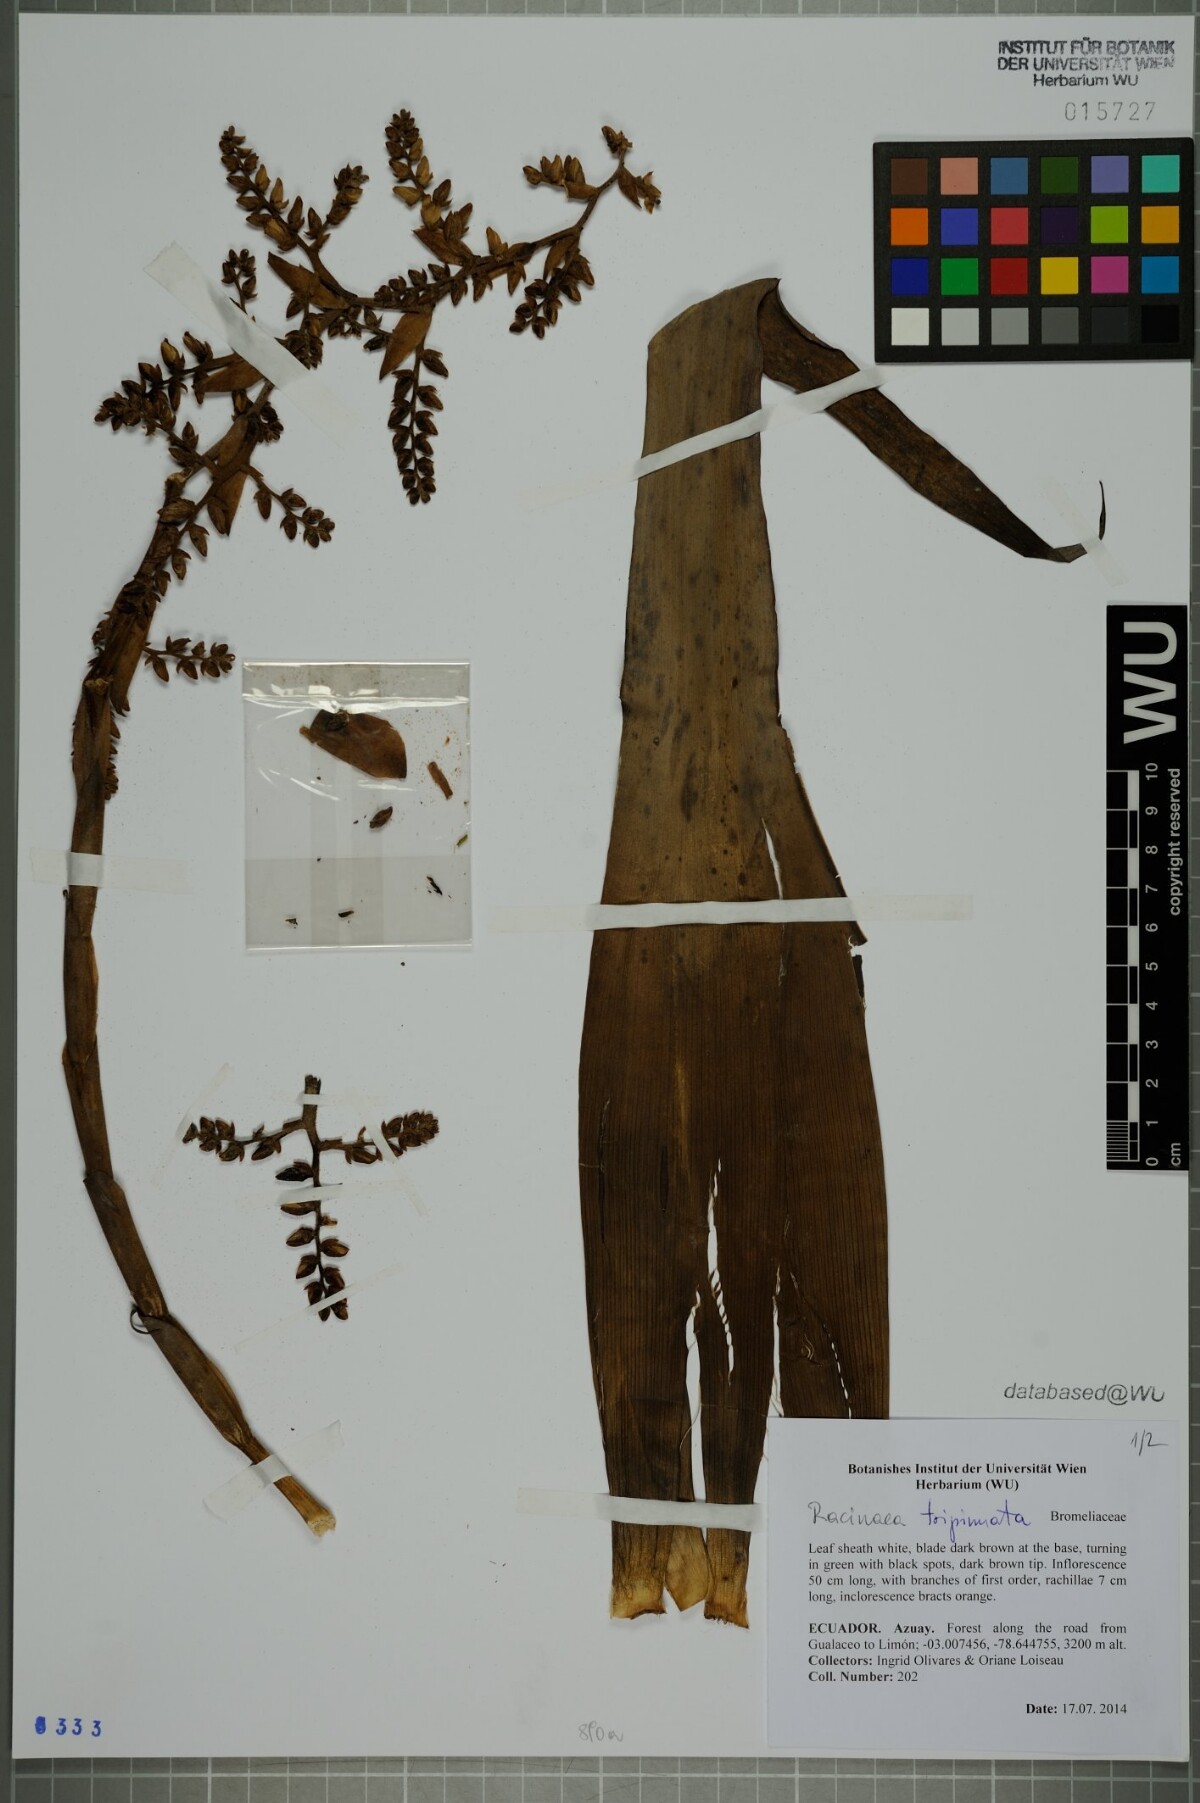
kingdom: Plantae
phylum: Tracheophyta
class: Liliopsida
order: Poales
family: Bromeliaceae
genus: Racinaea
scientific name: Racinaea tripinnata
